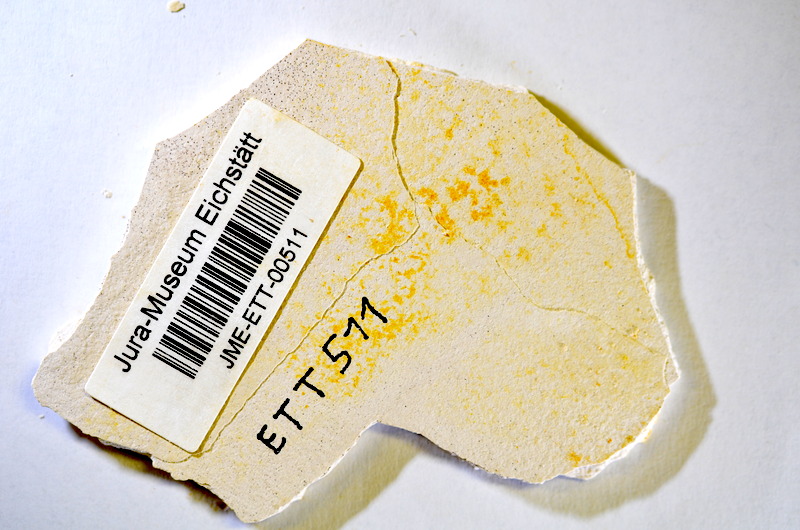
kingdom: Animalia
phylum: Chordata
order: Salmoniformes
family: Orthogonikleithridae
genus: Orthogonikleithrus
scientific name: Orthogonikleithrus hoelli
